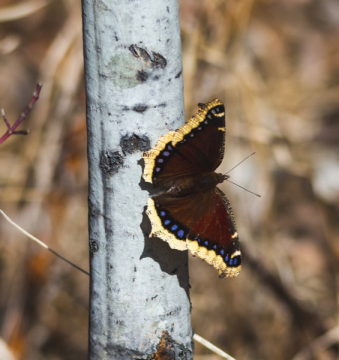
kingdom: Animalia
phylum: Arthropoda
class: Insecta
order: Lepidoptera
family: Nymphalidae
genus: Nymphalis
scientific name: Nymphalis antiopa
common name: Mourning Cloak
